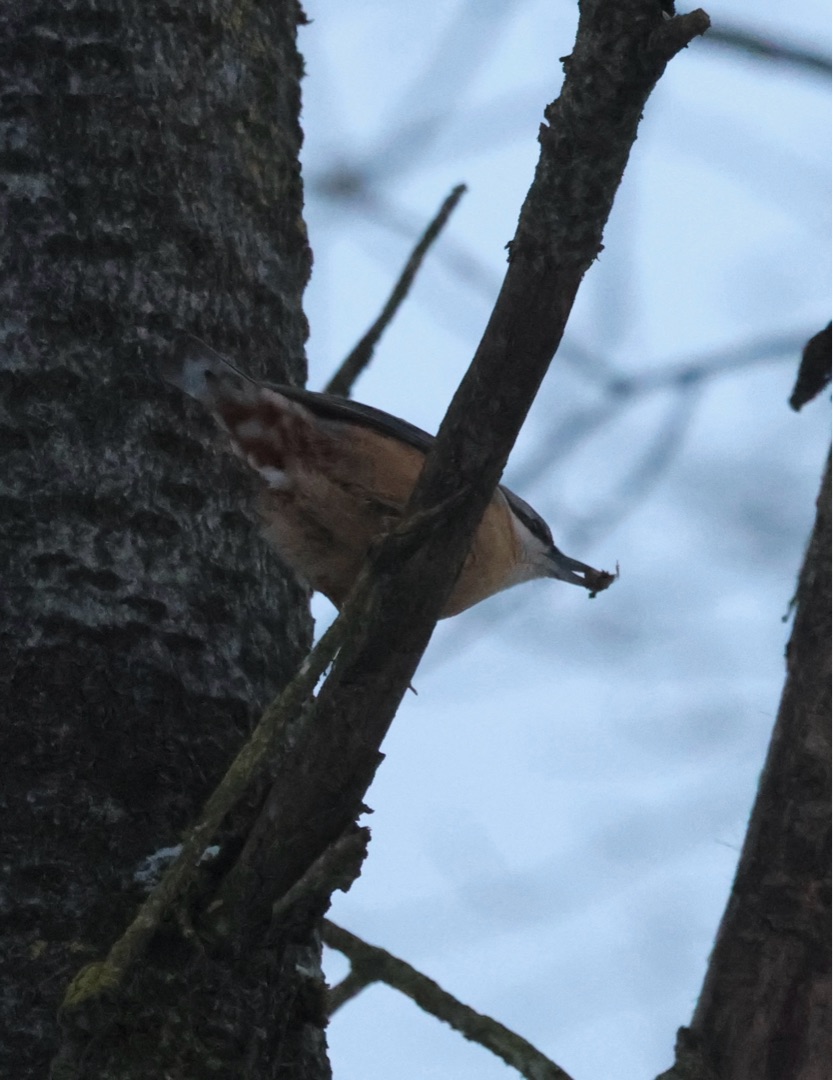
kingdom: Animalia
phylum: Chordata
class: Aves
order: Passeriformes
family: Sittidae
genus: Sitta
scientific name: Sitta europaea
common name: Spætmejse
